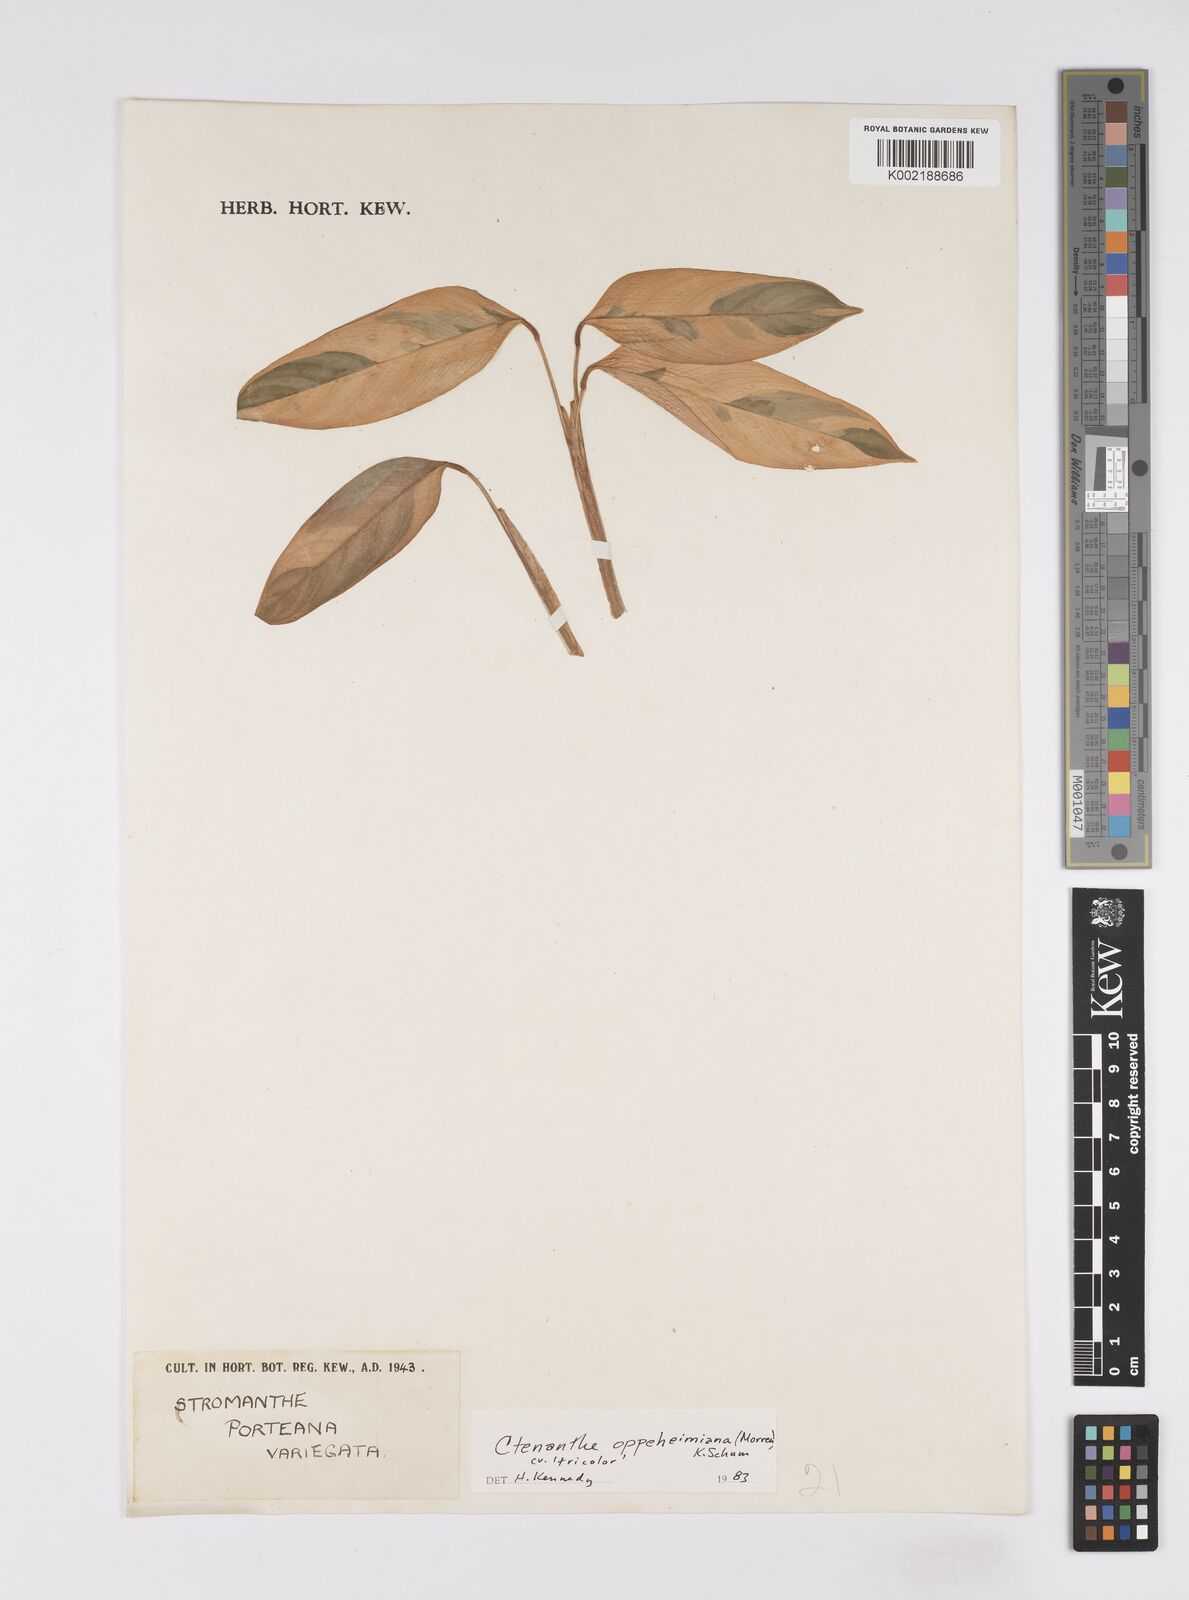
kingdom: Plantae
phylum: Tracheophyta
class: Liliopsida
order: Zingiberales
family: Marantaceae
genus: Ctenanthe
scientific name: Ctenanthe oppenheimiana
